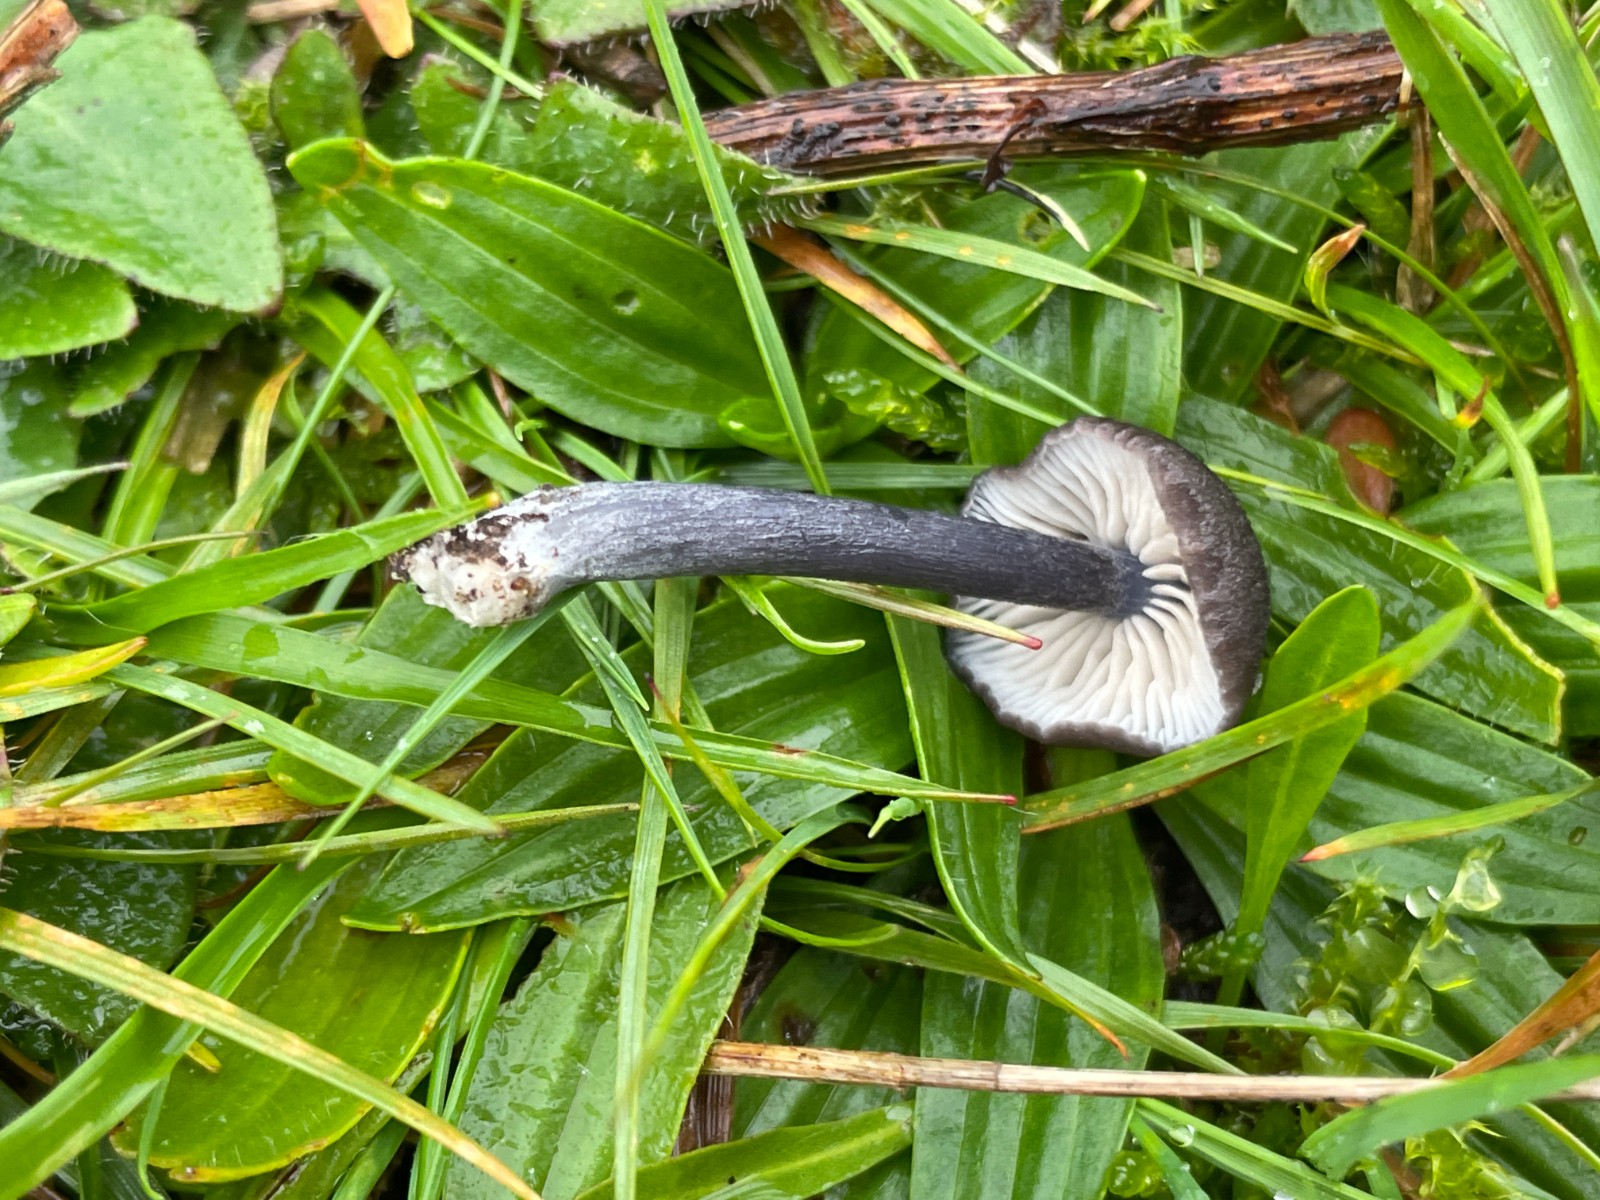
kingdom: Fungi
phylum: Basidiomycota
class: Agaricomycetes
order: Agaricales
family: Entolomataceae
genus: Entoloma
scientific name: Entoloma
